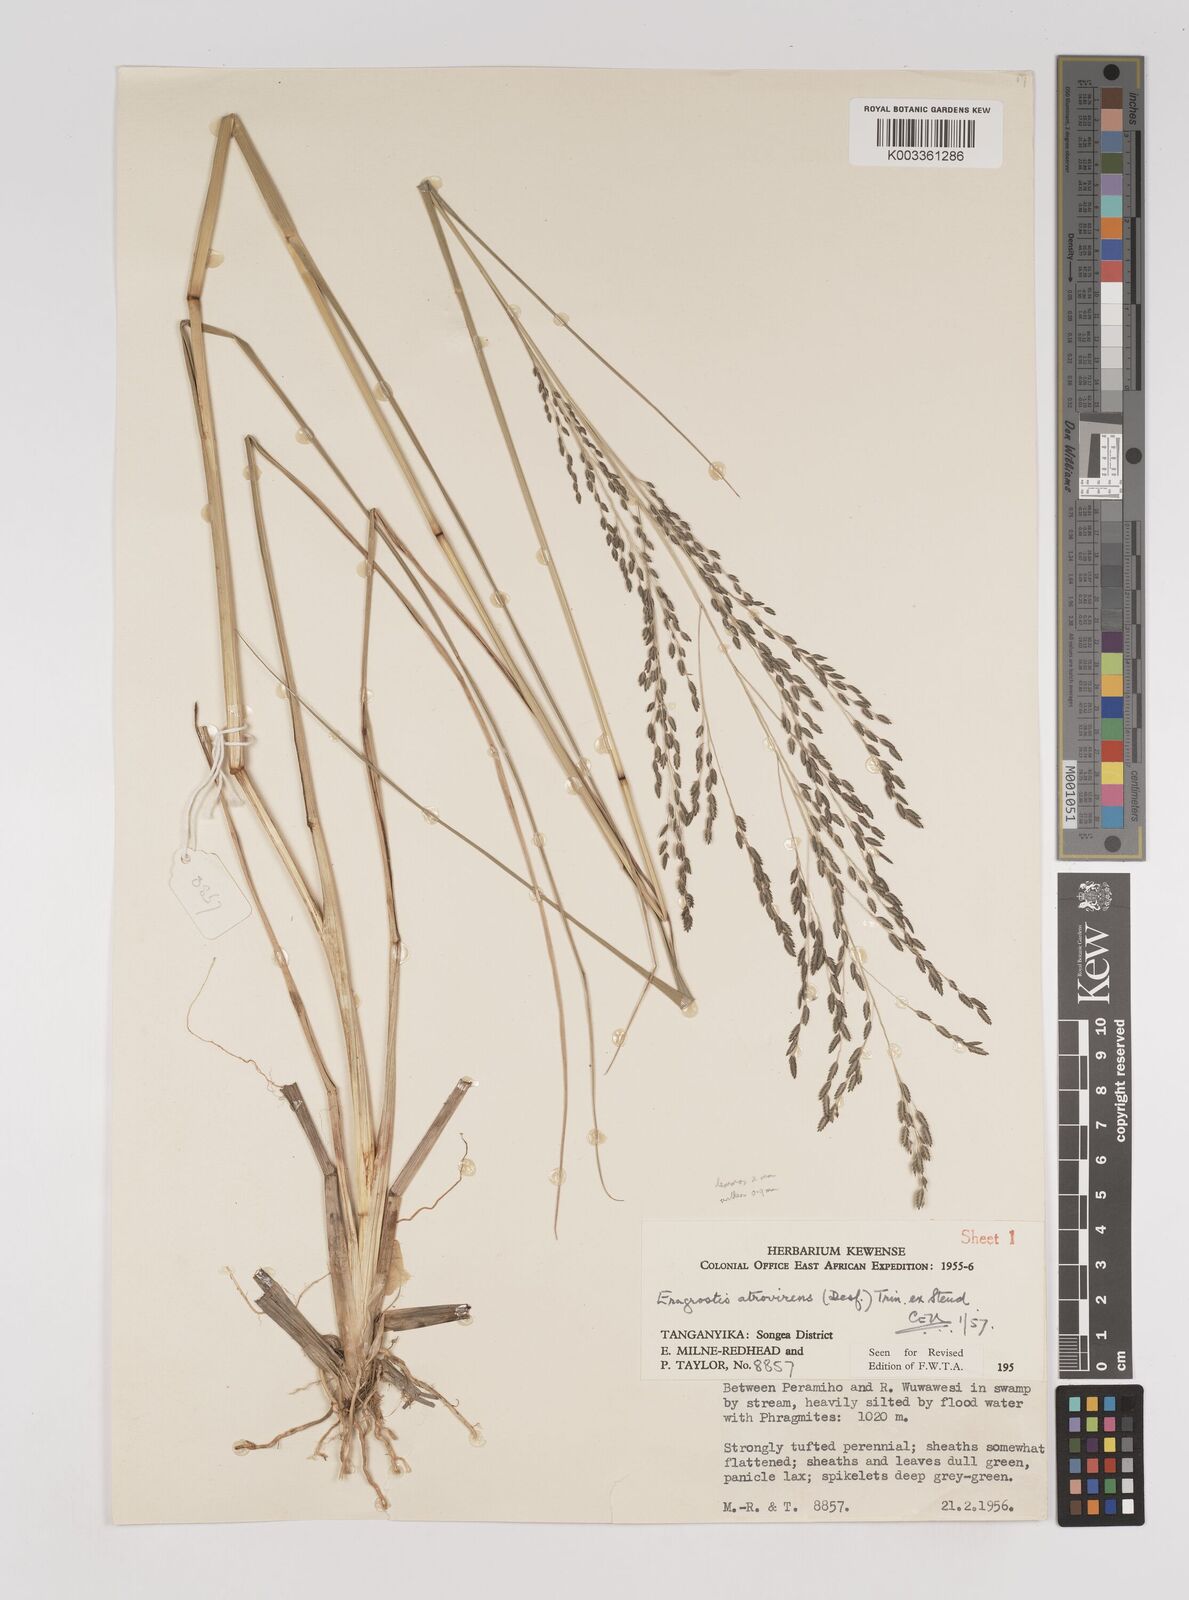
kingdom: Plantae
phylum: Tracheophyta
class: Liliopsida
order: Poales
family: Poaceae
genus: Eragrostis
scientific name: Eragrostis papposa
